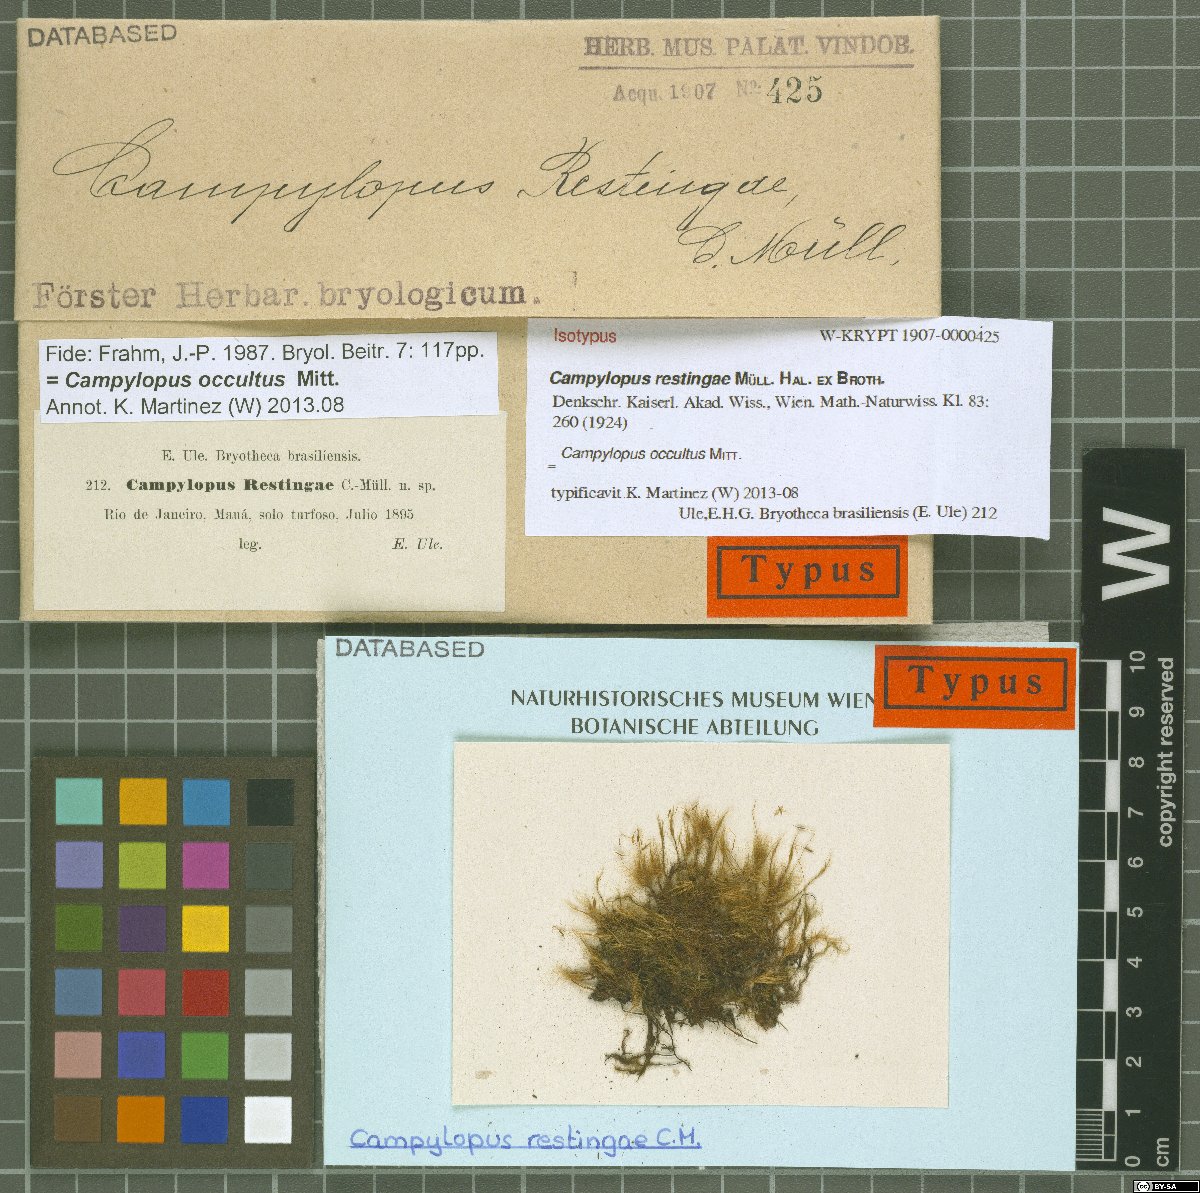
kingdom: Plantae
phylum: Bryophyta
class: Bryopsida
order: Dicranales
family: Leucobryaceae
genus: Campylopus
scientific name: Campylopus occultus
